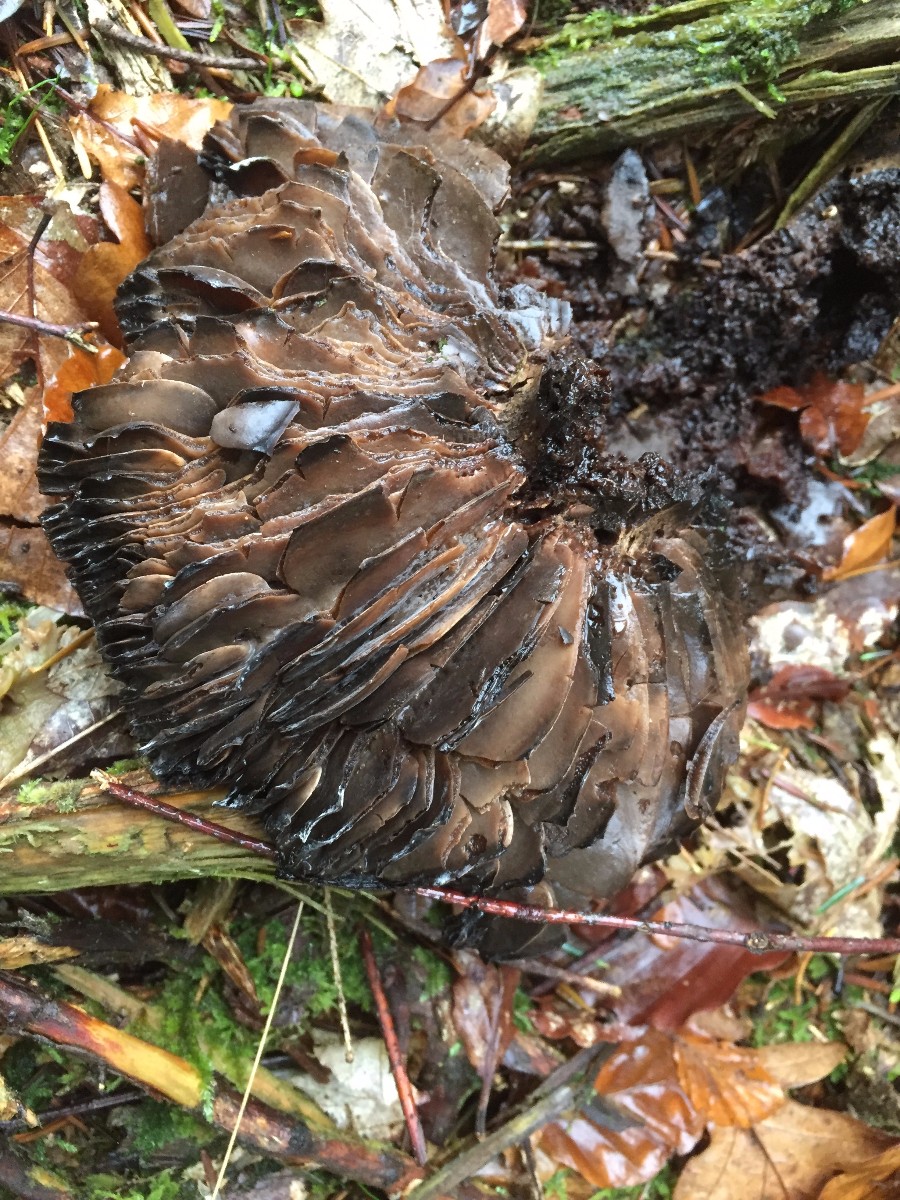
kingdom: Fungi
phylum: Basidiomycota
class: Agaricomycetes
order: Russulales
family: Russulaceae
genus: Russula
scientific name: Russula adusta
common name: sværtende skørhat
